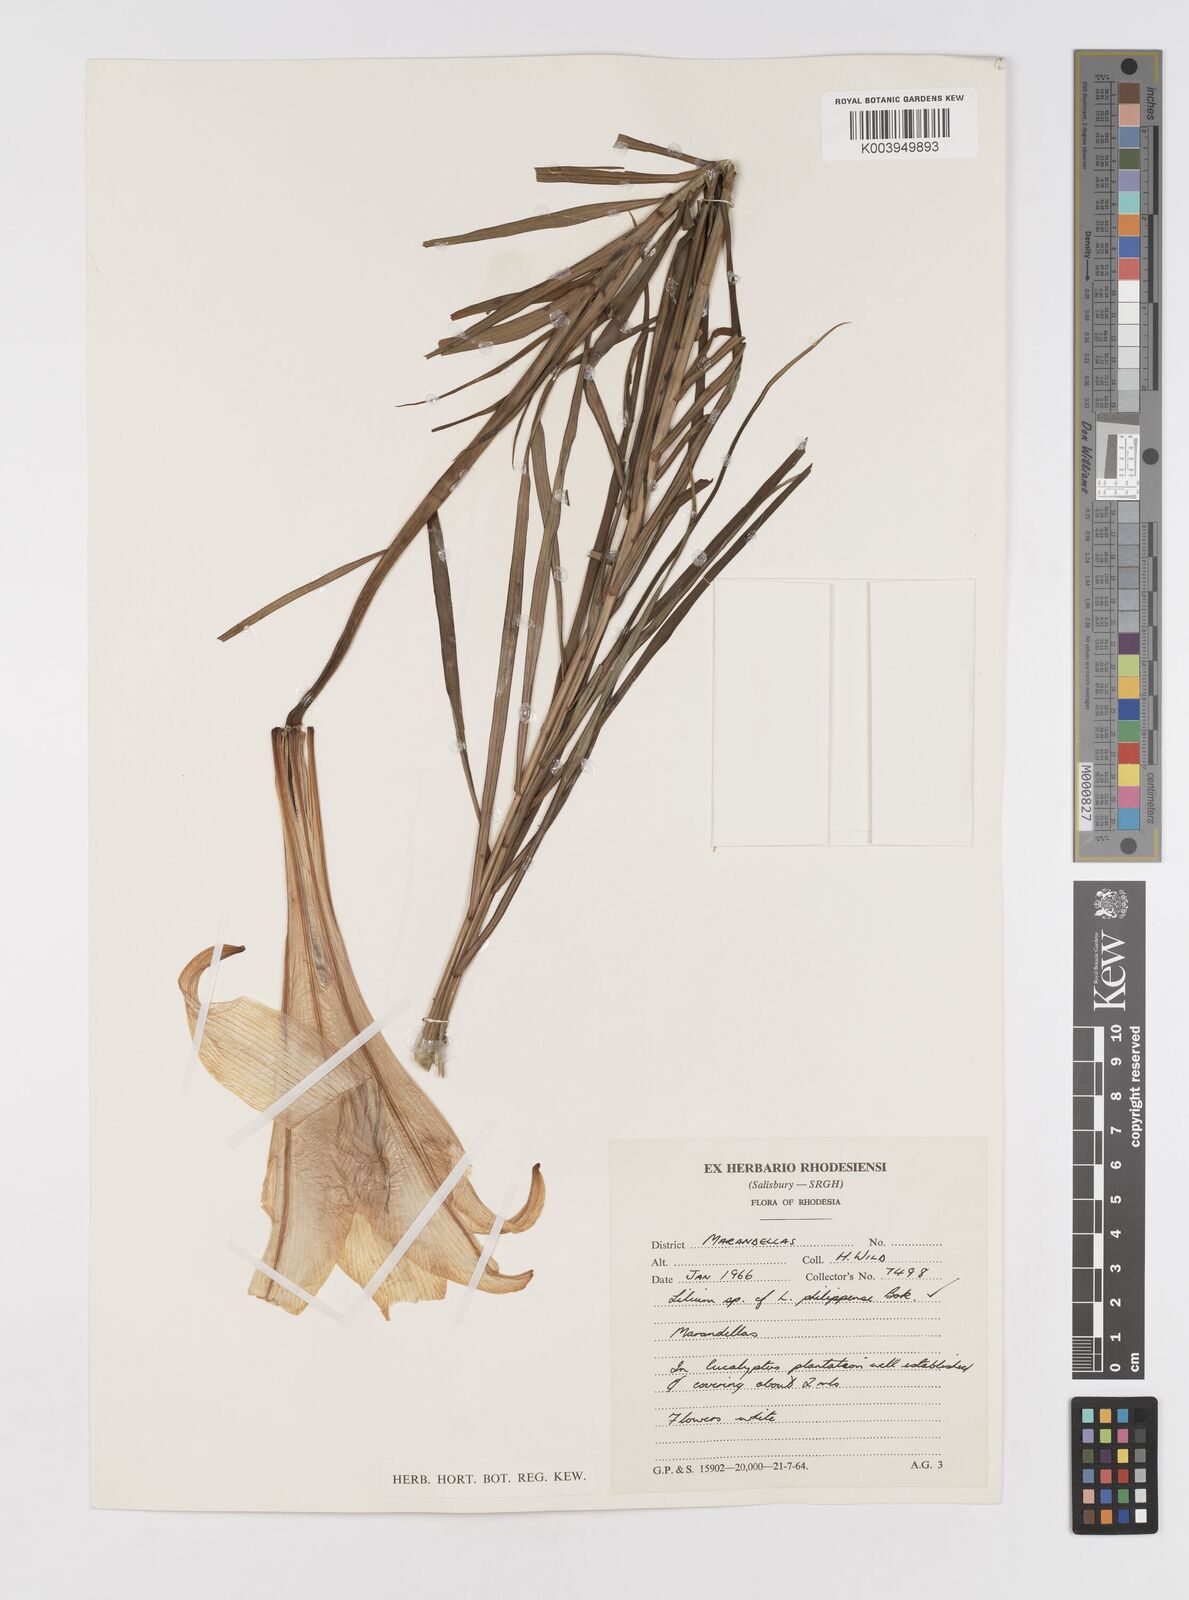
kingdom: Plantae
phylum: Tracheophyta
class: Liliopsida
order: Liliales
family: Liliaceae
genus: Lilium
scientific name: Lilium formosanum
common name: Formosa lily
